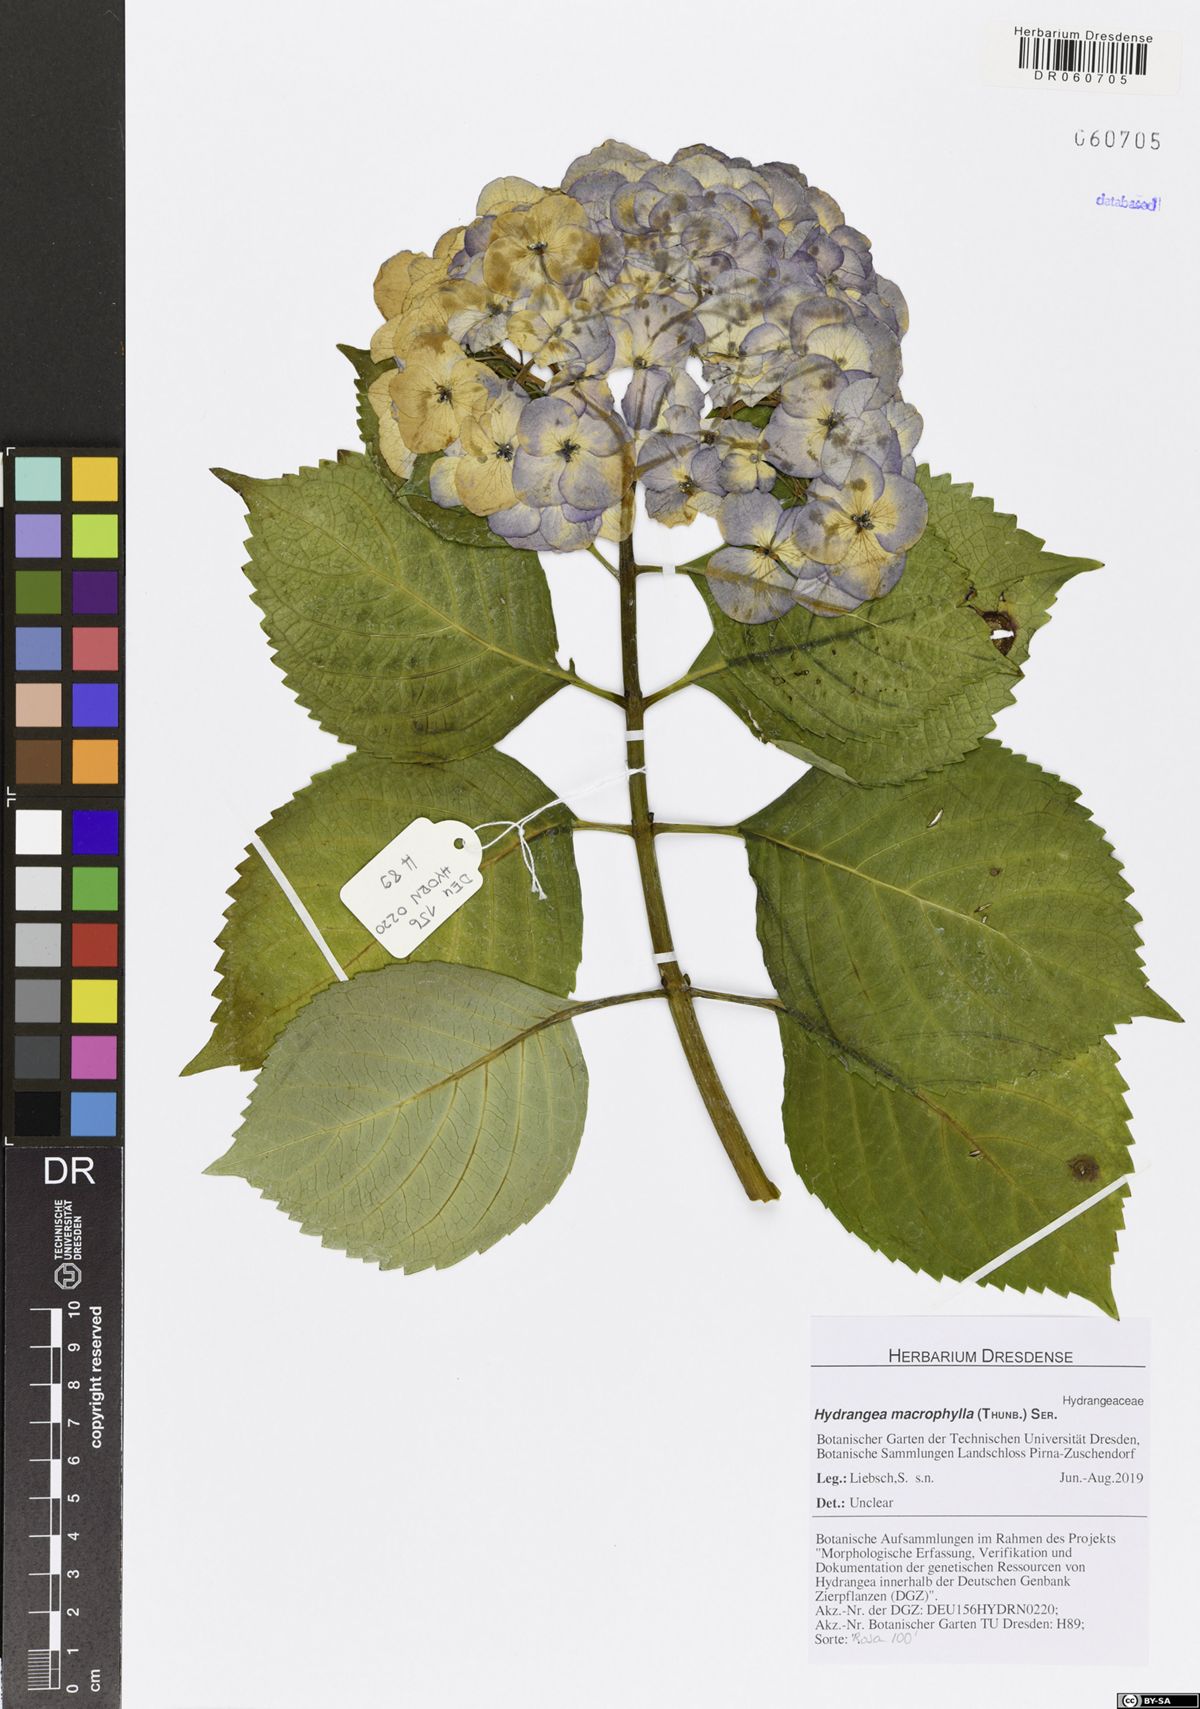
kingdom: Plantae
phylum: Tracheophyta
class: Magnoliopsida
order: Cornales
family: Hydrangeaceae
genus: Hydrangea
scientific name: Hydrangea macrophylla
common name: Hydrangea
